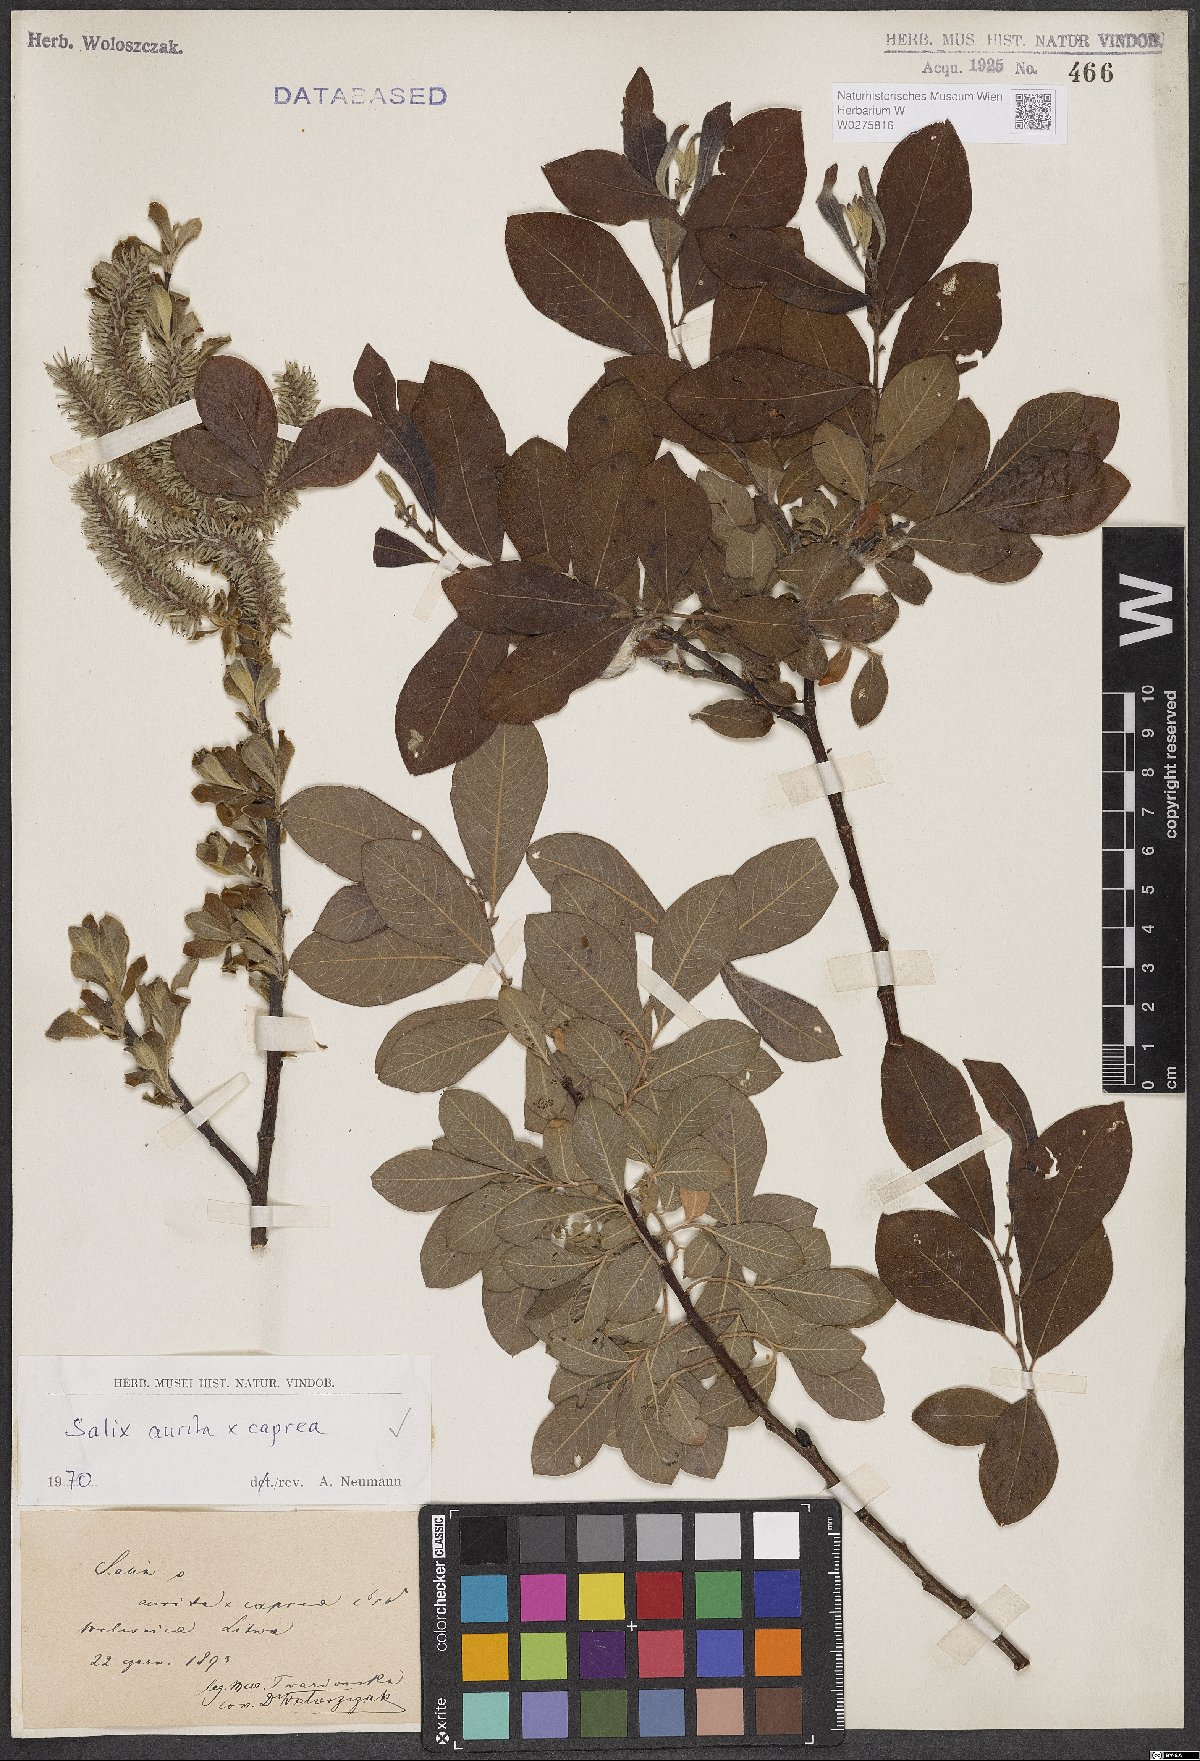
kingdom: Plantae
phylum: Tracheophyta
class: Magnoliopsida
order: Malpighiales
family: Salicaceae
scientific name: Salicaceae
